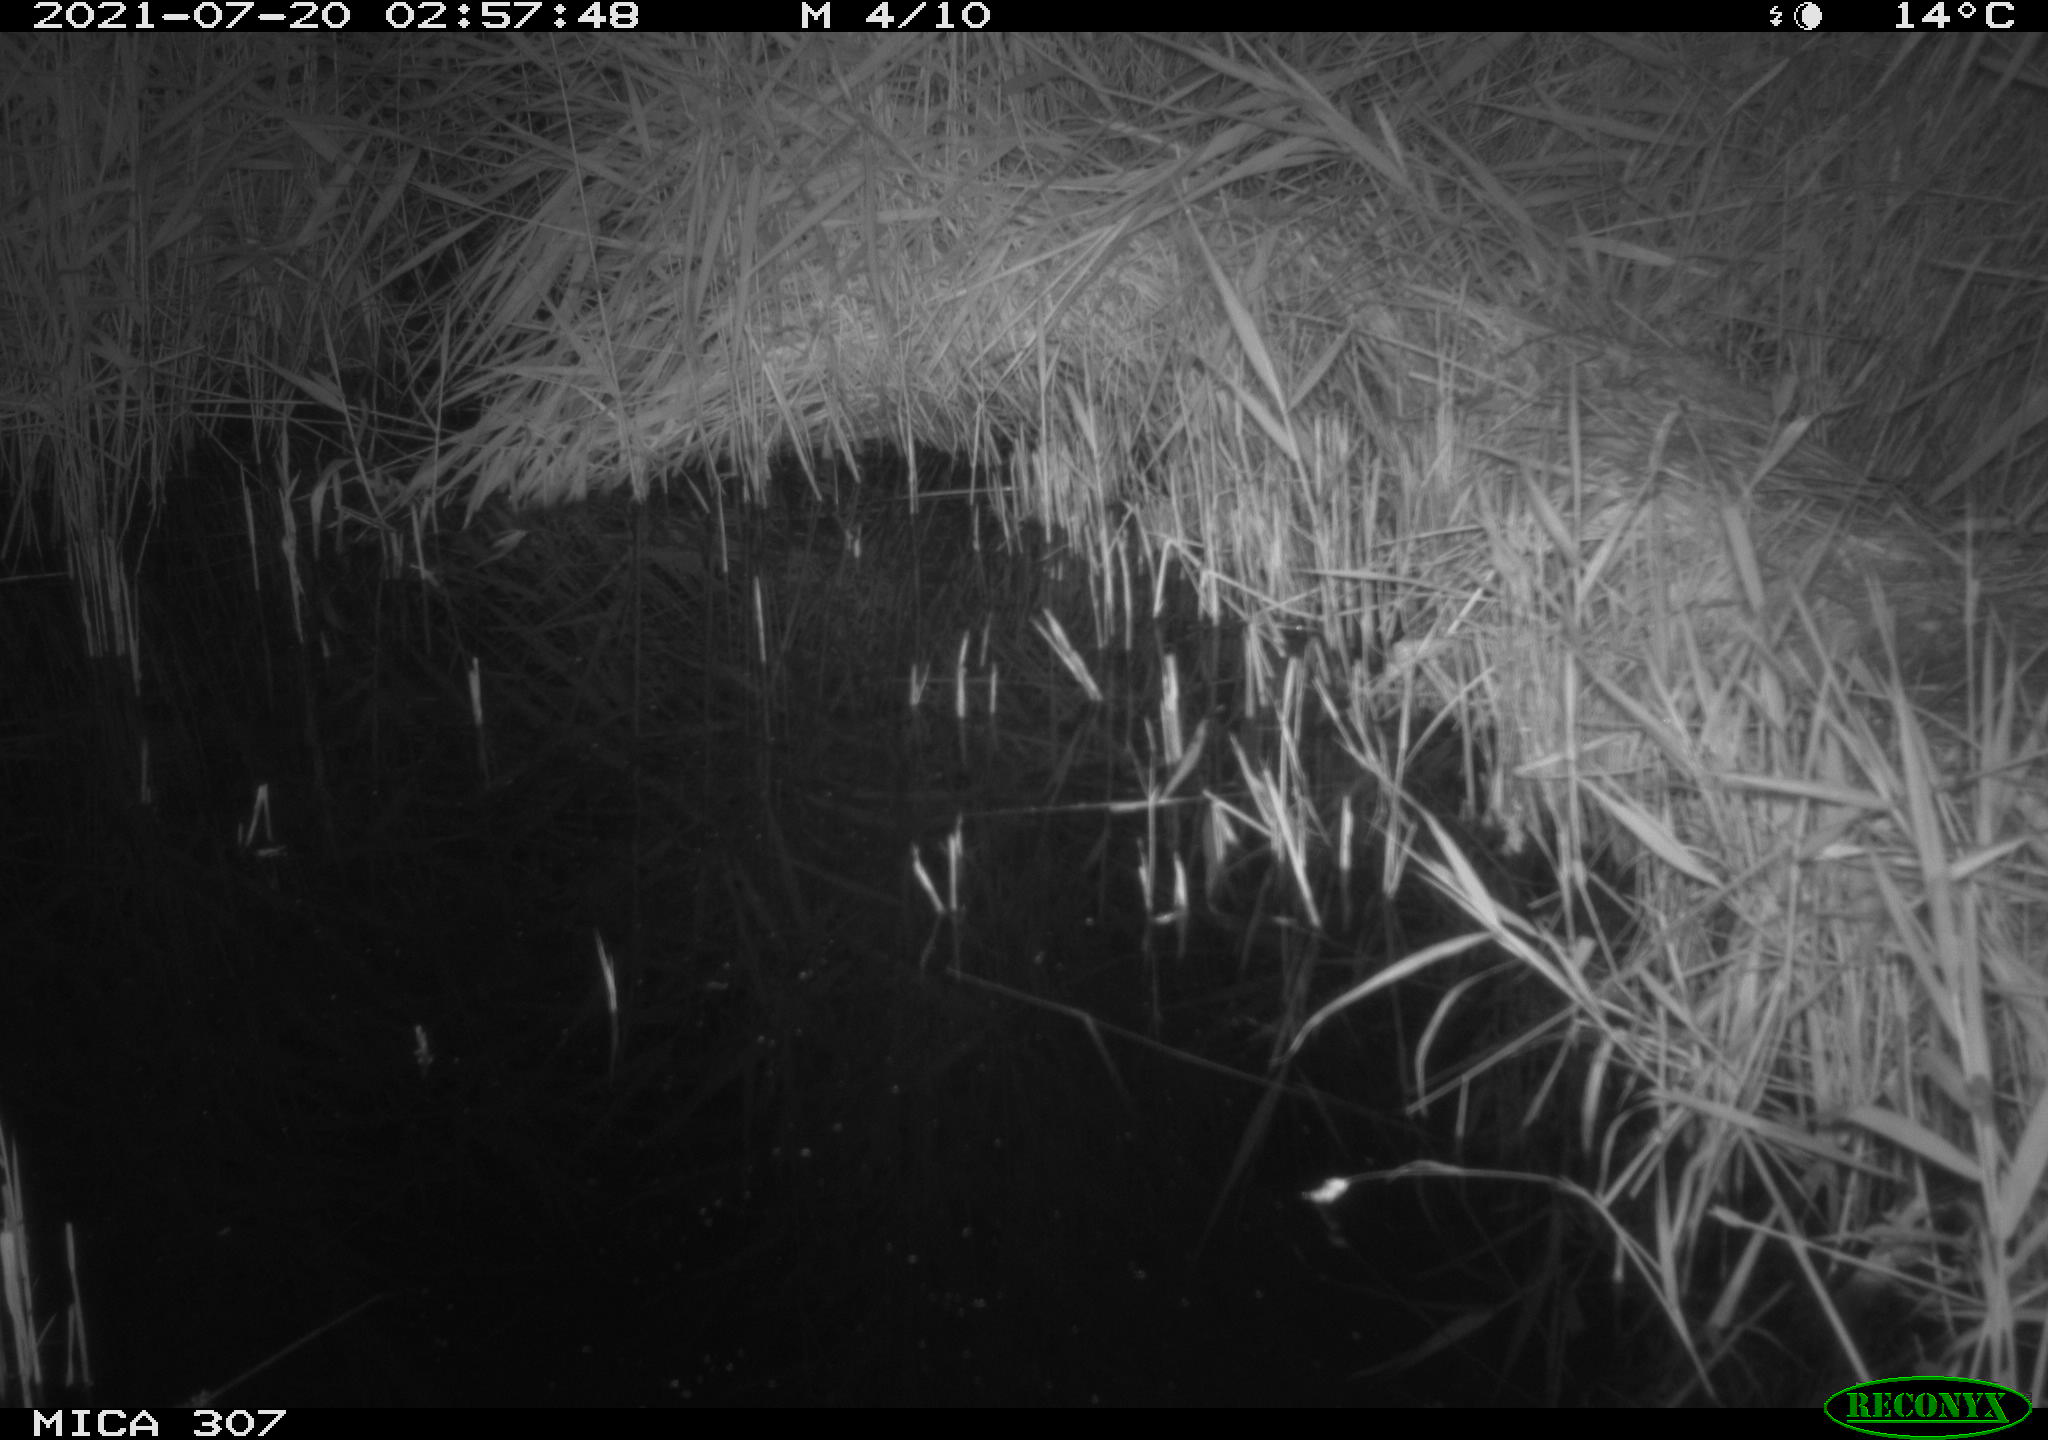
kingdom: Animalia
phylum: Chordata
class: Mammalia
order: Rodentia
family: Muridae
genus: Rattus
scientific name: Rattus norvegicus
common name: Brown rat
